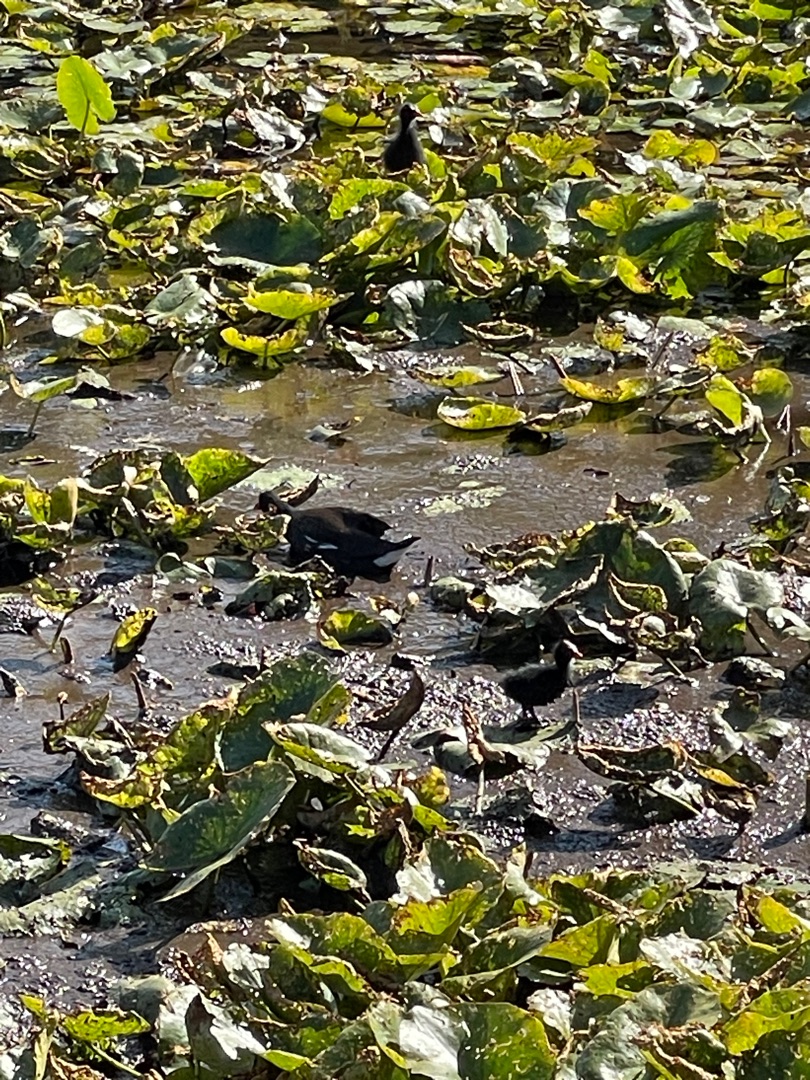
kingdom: Animalia
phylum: Chordata
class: Aves
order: Gruiformes
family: Rallidae
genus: Gallinula
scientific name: Gallinula chloropus
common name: Grønbenet rørhøne
